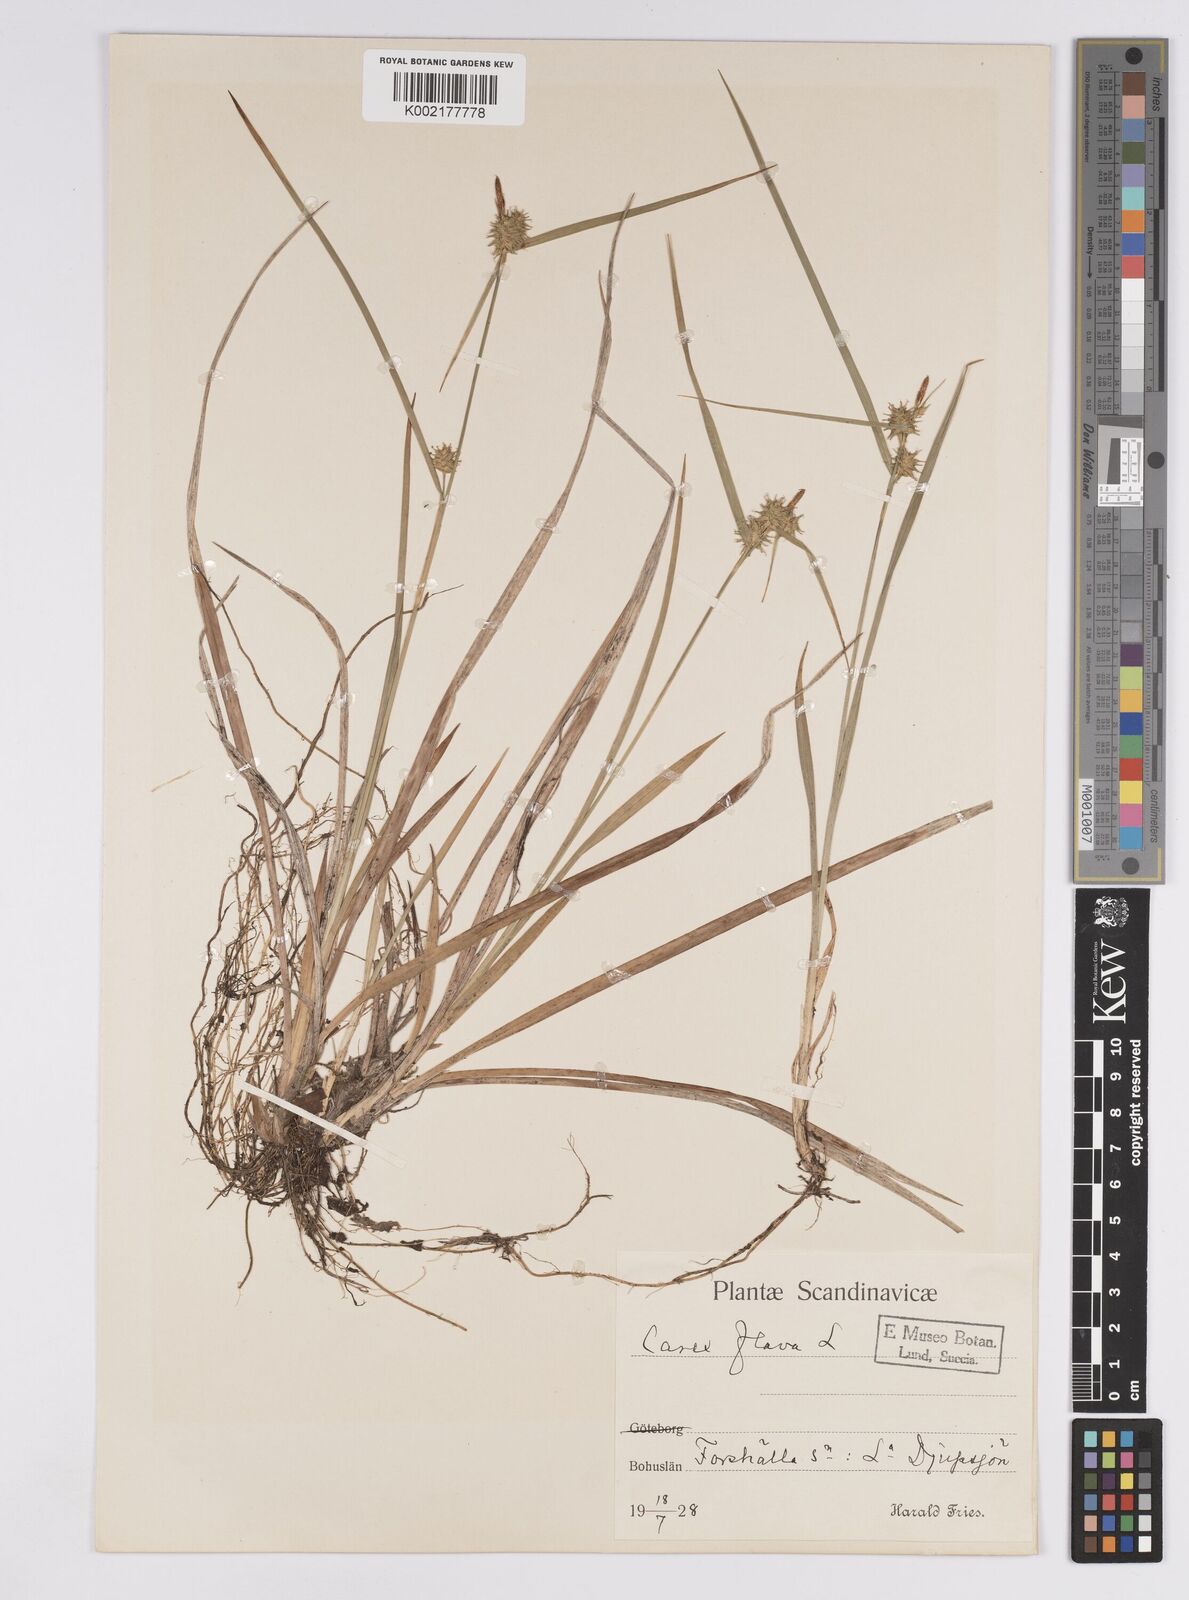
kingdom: Plantae
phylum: Tracheophyta
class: Liliopsida
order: Poales
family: Cyperaceae
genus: Carex
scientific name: Carex flava
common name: Large yellow-sedge
